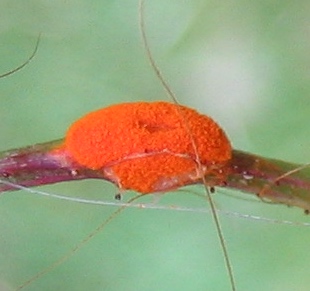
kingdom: Fungi
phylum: Basidiomycota
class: Pucciniomycetes
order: Pucciniales
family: Phragmidiaceae
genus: Phragmidium
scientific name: Phragmidium
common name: flercellerust
